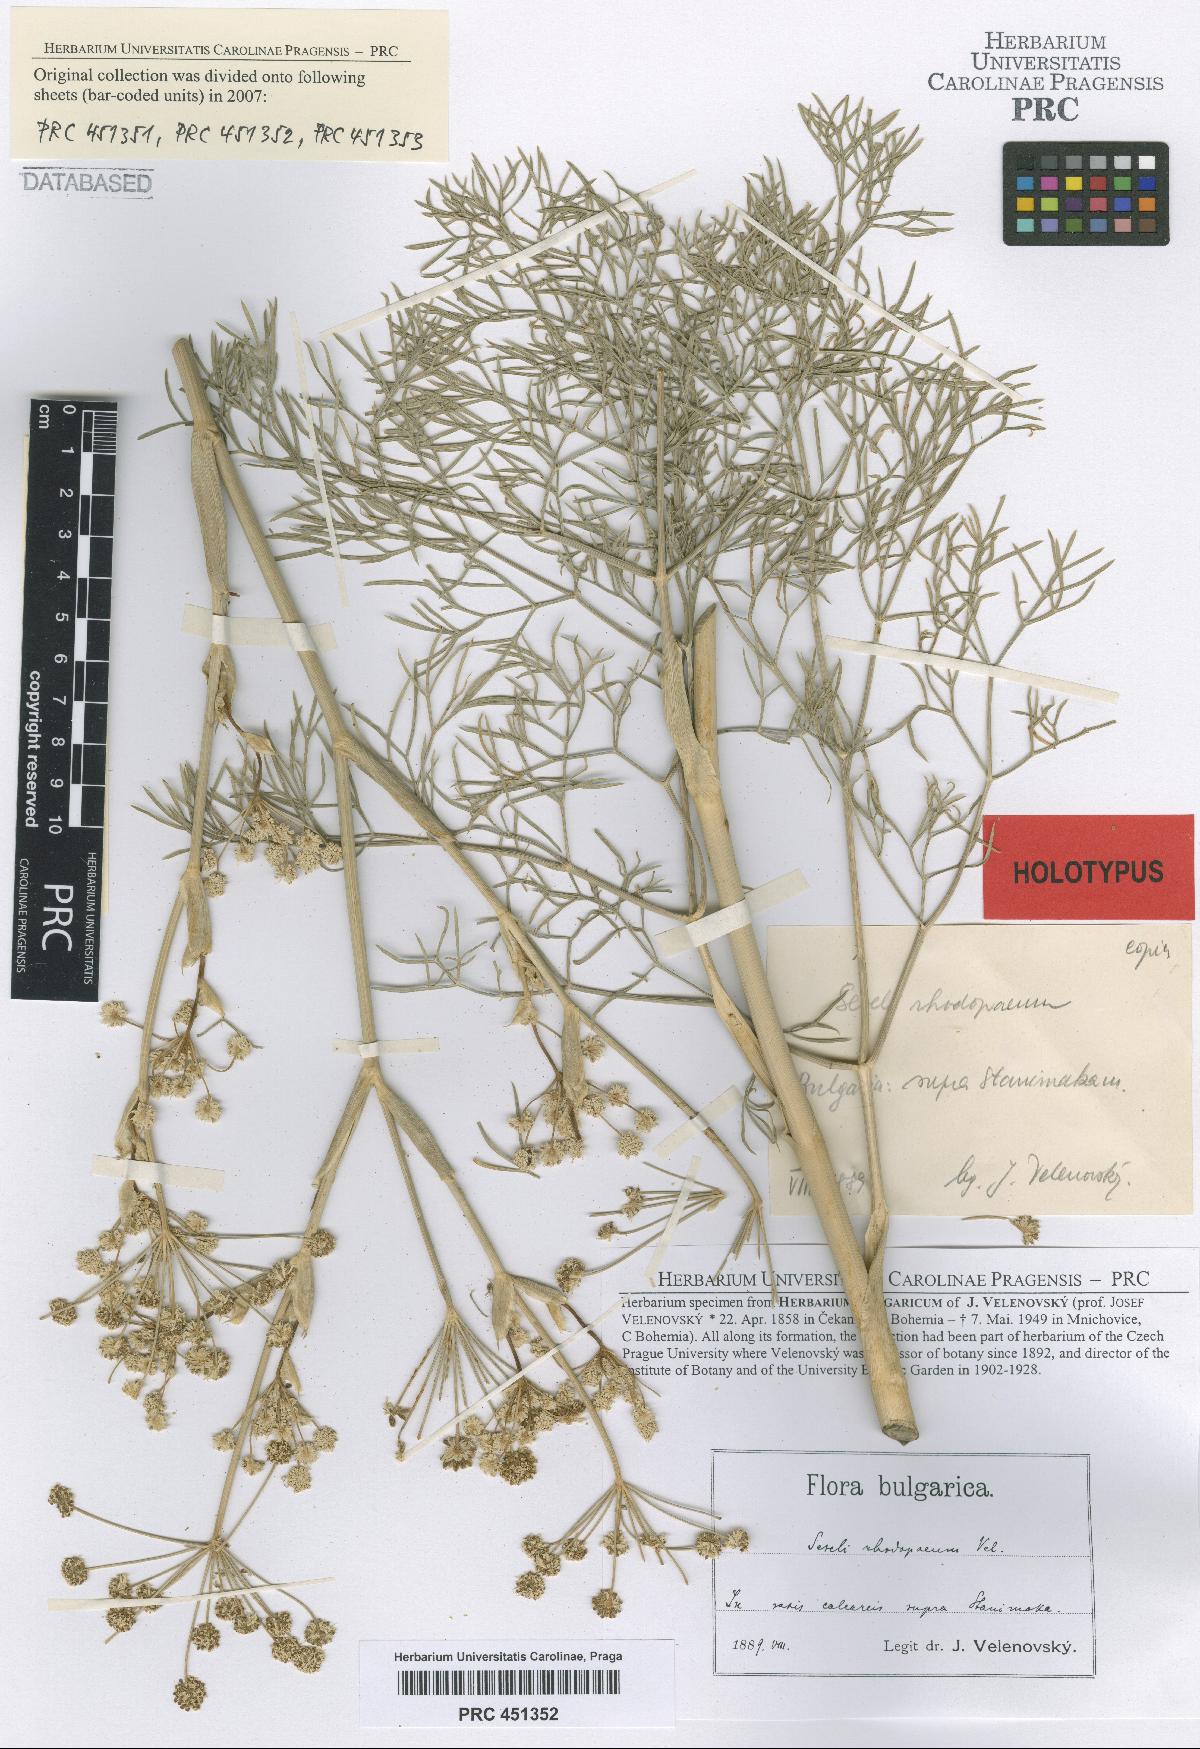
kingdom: Plantae
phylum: Tracheophyta
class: Magnoliopsida
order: Apiales
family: Apiaceae
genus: Seseli
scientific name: Seseli rhodopeum
